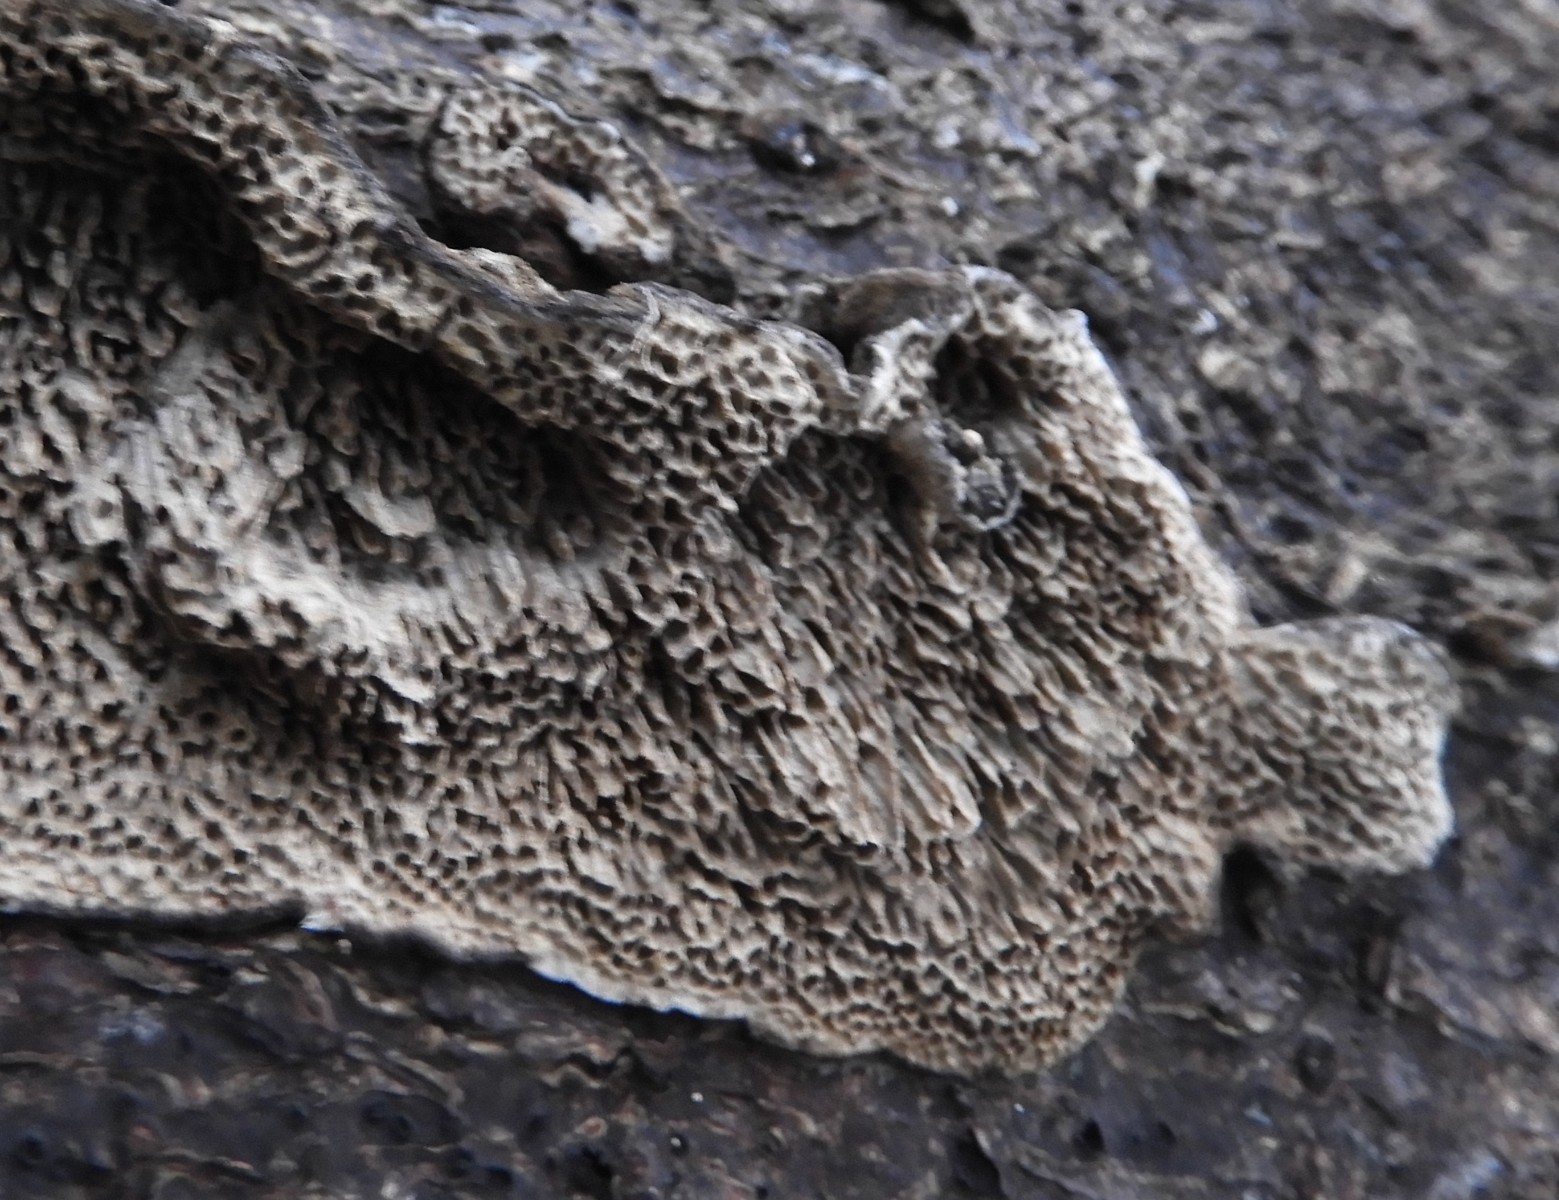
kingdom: Fungi
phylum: Basidiomycota
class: Agaricomycetes
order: Polyporales
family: Polyporaceae
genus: Podofomes
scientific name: Podofomes mollis
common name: blød begporesvamp
